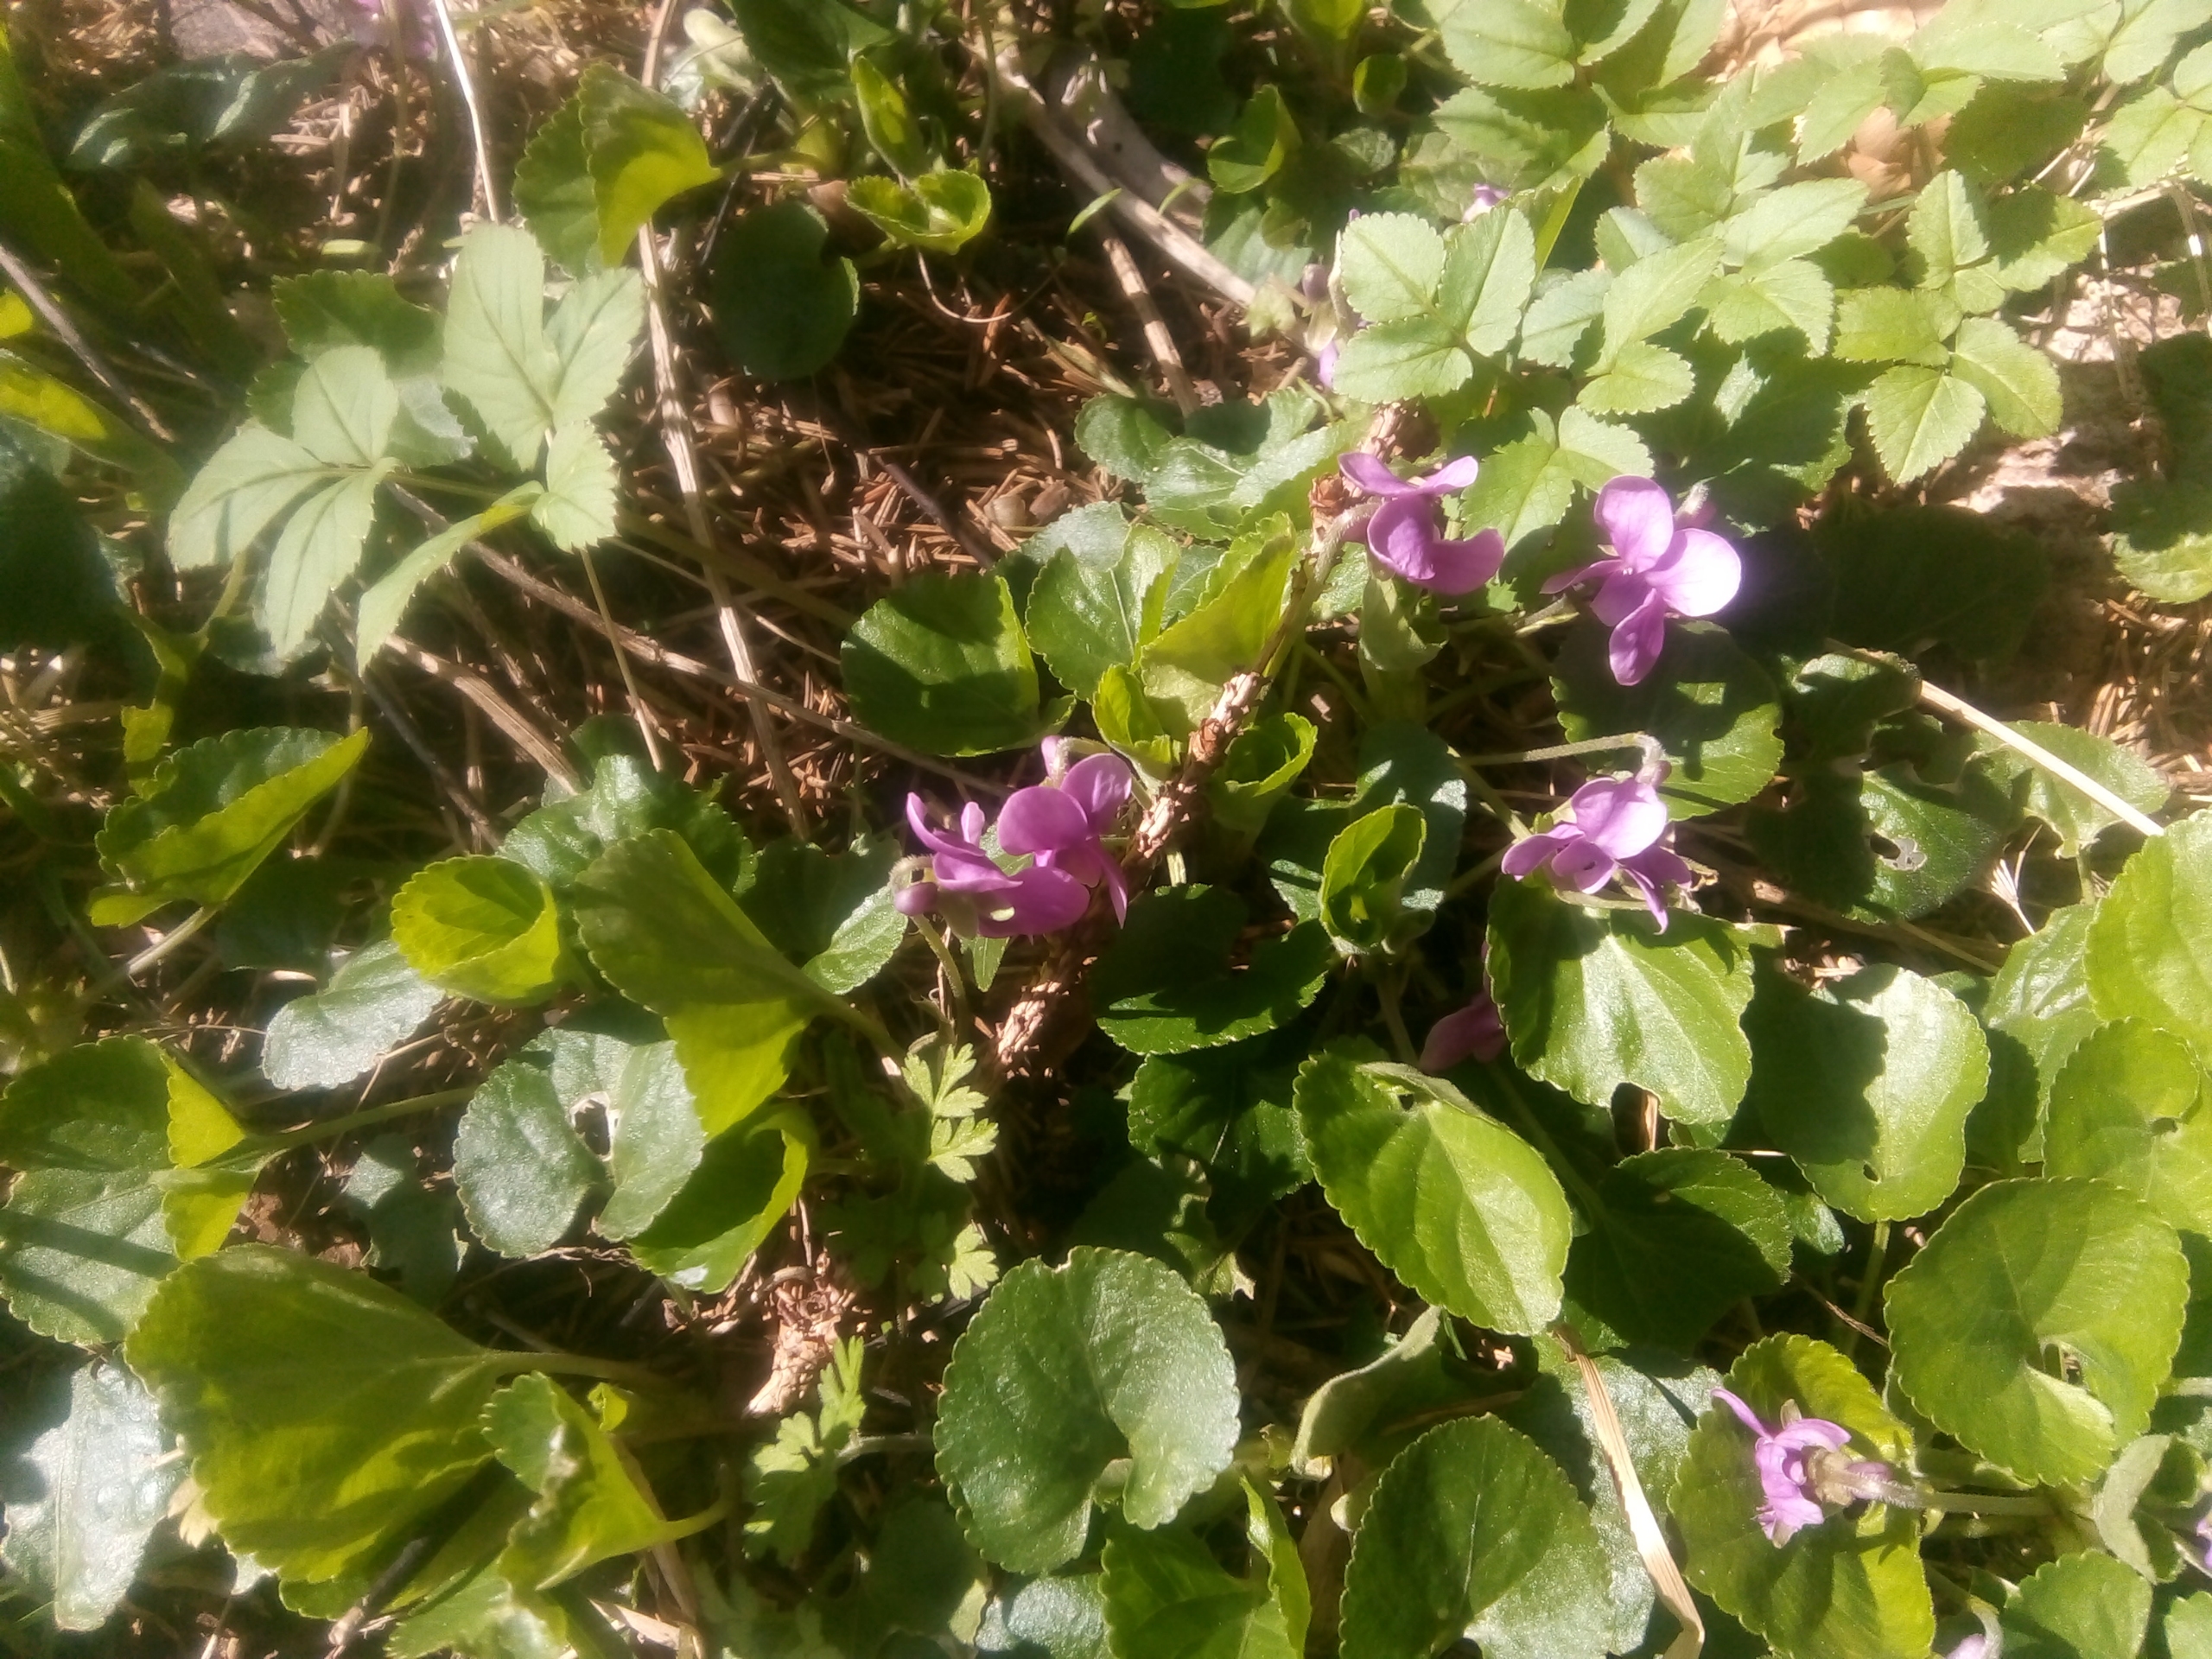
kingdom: Plantae
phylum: Tracheophyta
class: Magnoliopsida
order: Malpighiales
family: Violaceae
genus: Viola
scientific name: Viola odorata
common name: Marts-viol
